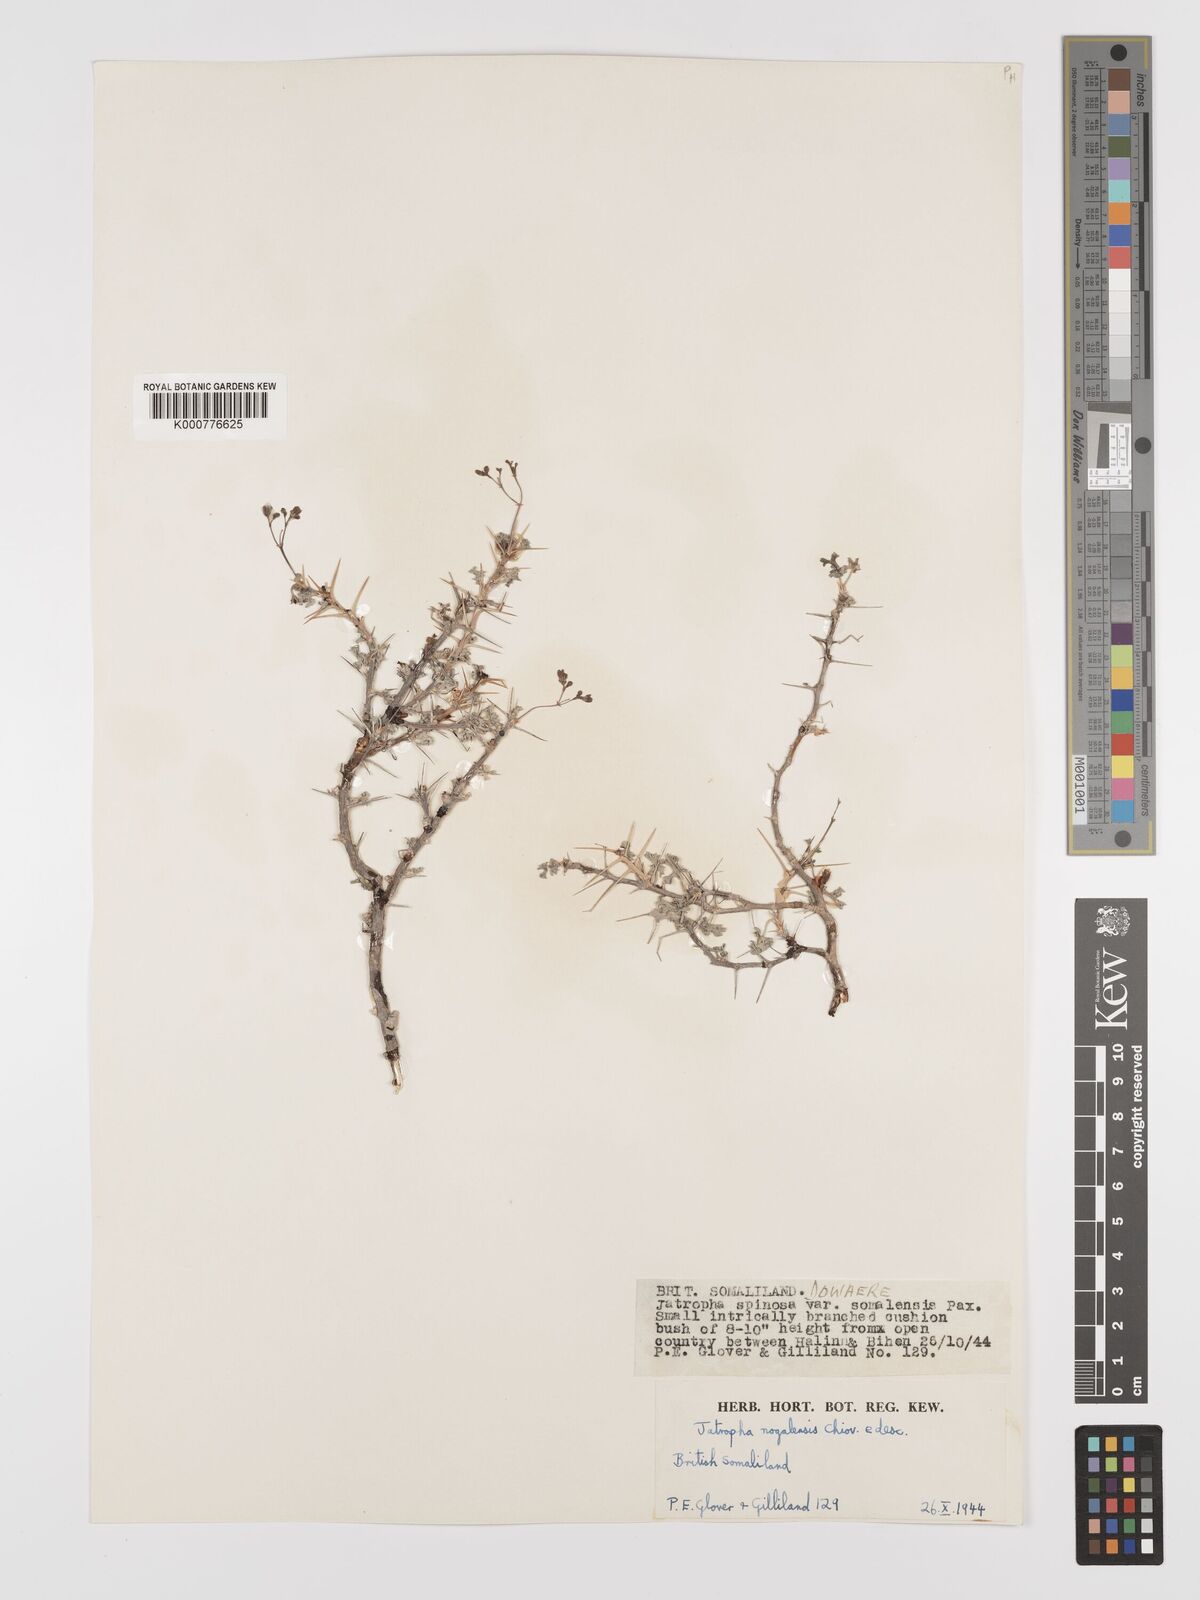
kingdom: Plantae
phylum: Tracheophyta
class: Magnoliopsida
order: Malpighiales
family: Euphorbiaceae
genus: Jatropha
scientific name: Jatropha nogalensis
